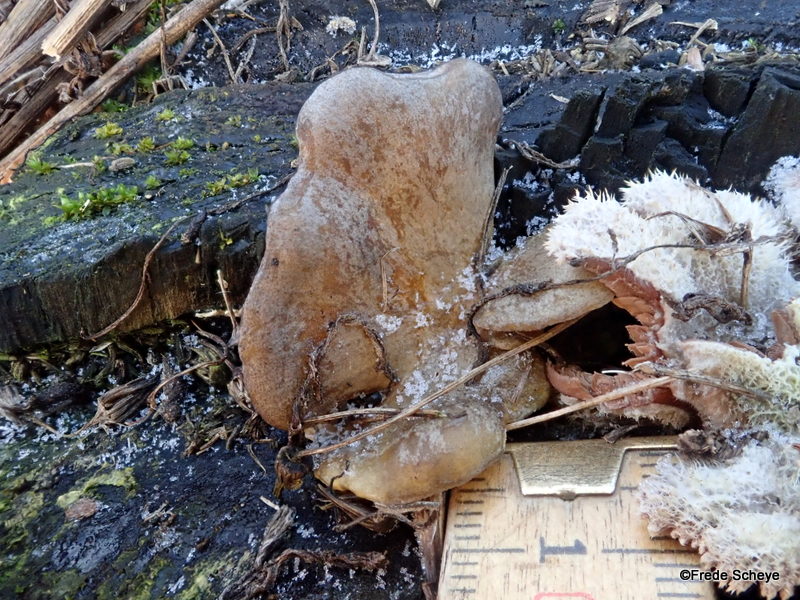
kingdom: Fungi
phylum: Basidiomycota
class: Agaricomycetes
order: Agaricales
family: Sarcomyxaceae
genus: Sarcomyxa
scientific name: Sarcomyxa serotina
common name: gummihat
